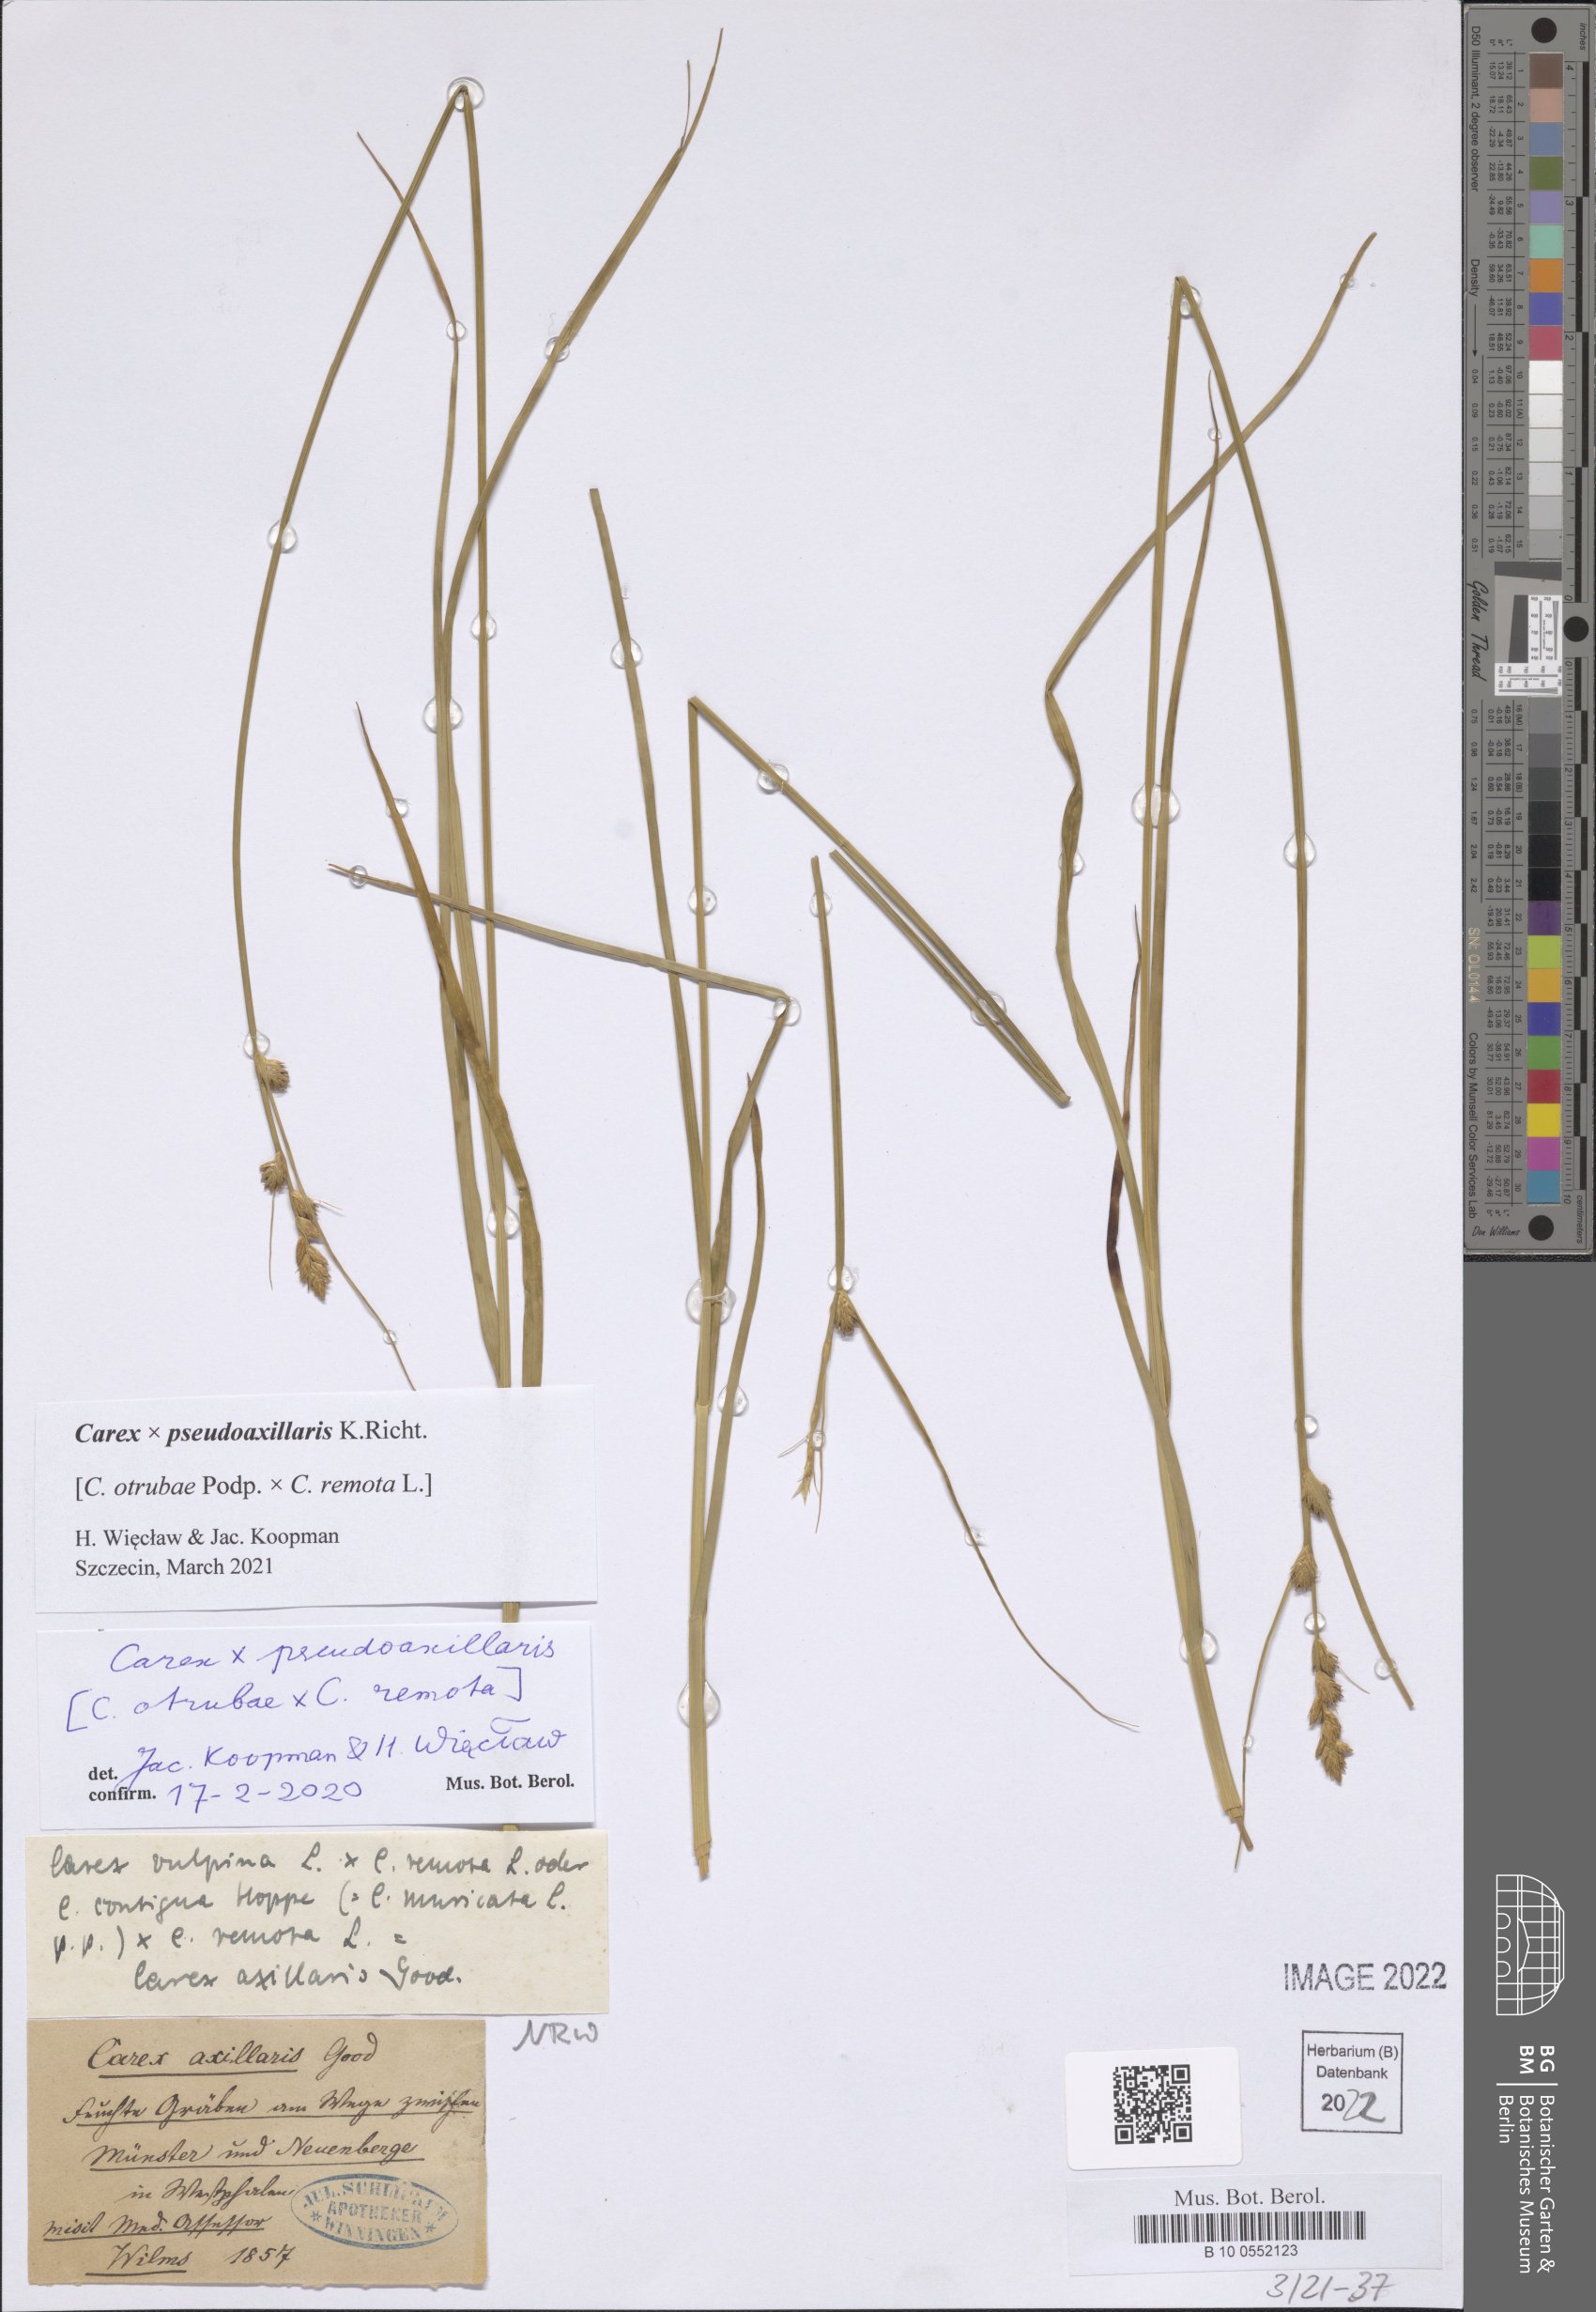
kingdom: Plantae
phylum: Tracheophyta
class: Liliopsida
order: Poales
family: Cyperaceae
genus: Carex
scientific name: Carex pseudoaxillaris
